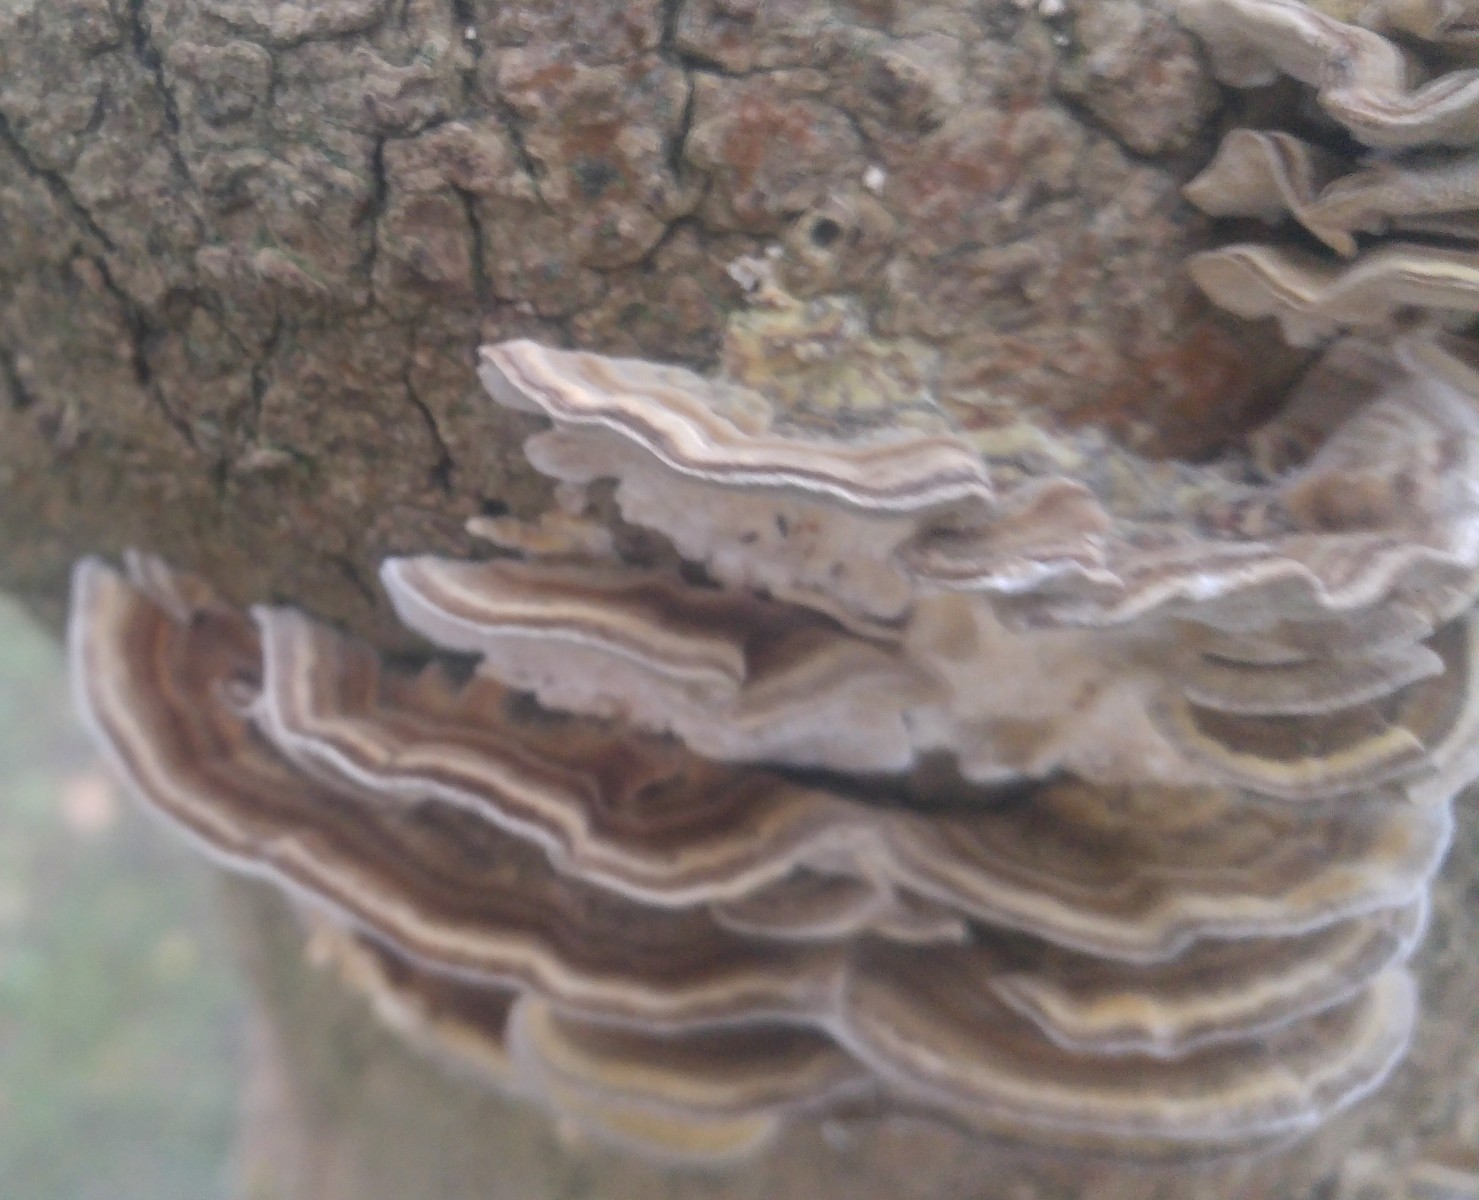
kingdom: Fungi
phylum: Basidiomycota
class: Agaricomycetes
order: Polyporales
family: Polyporaceae
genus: Trametes
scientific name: Trametes versicolor
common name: broget læderporesvamp
